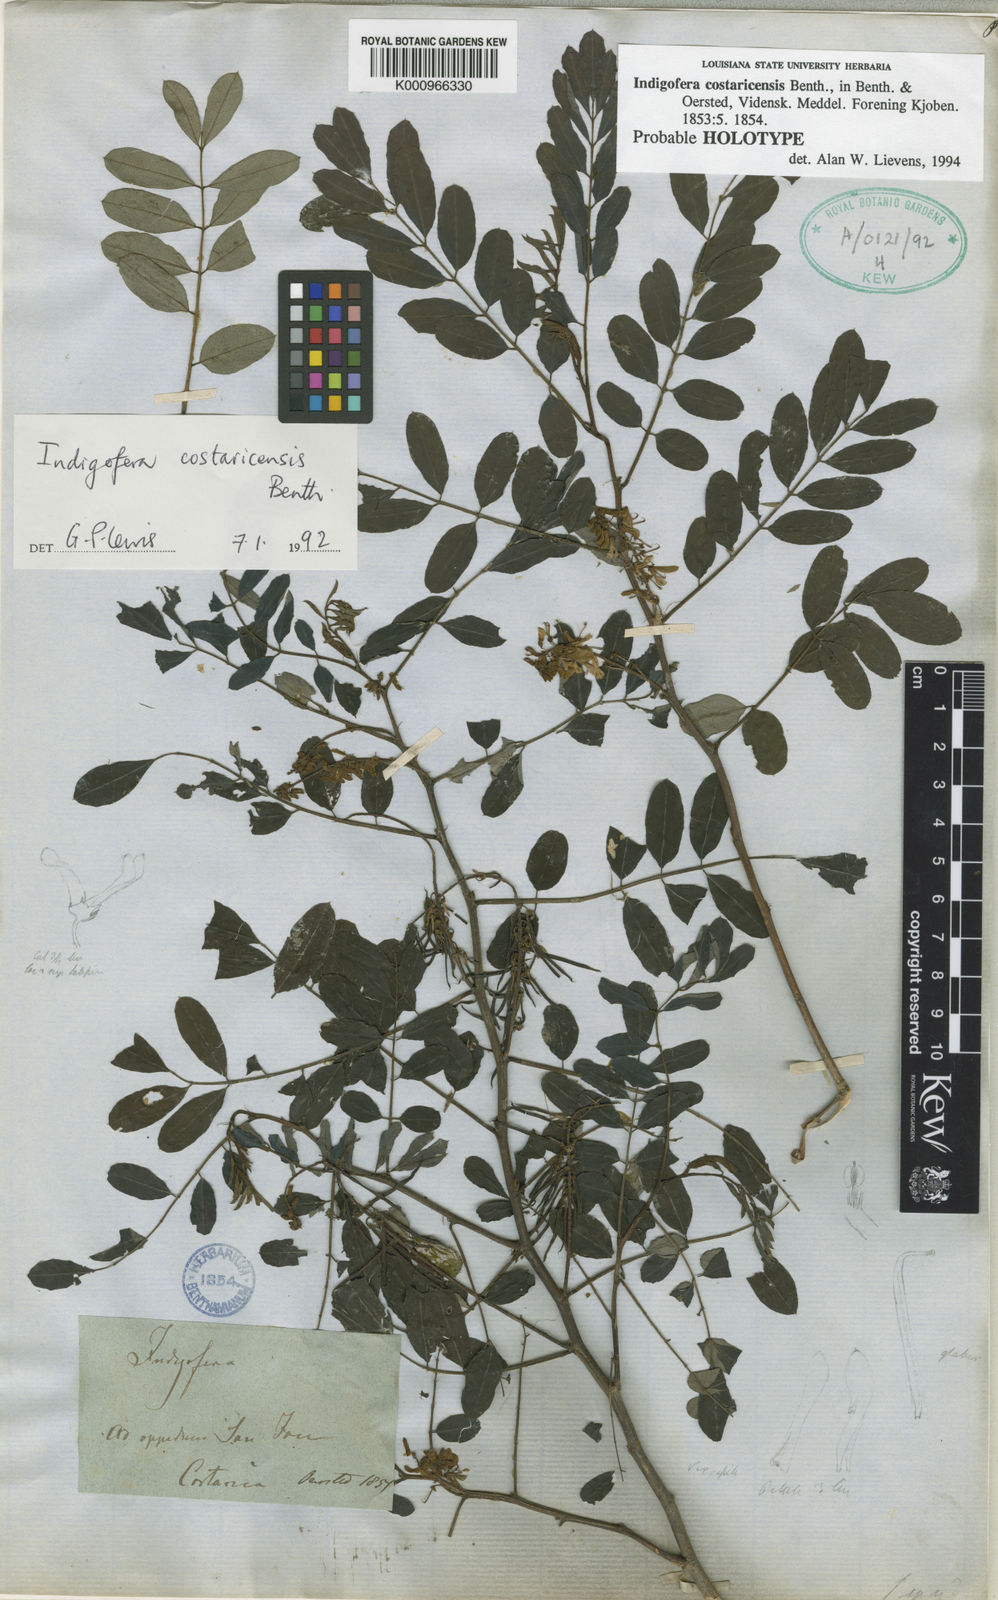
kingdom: Plantae
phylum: Tracheophyta
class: Magnoliopsida
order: Fabales
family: Fabaceae
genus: Indigofera
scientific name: Indigofera costaricensis
